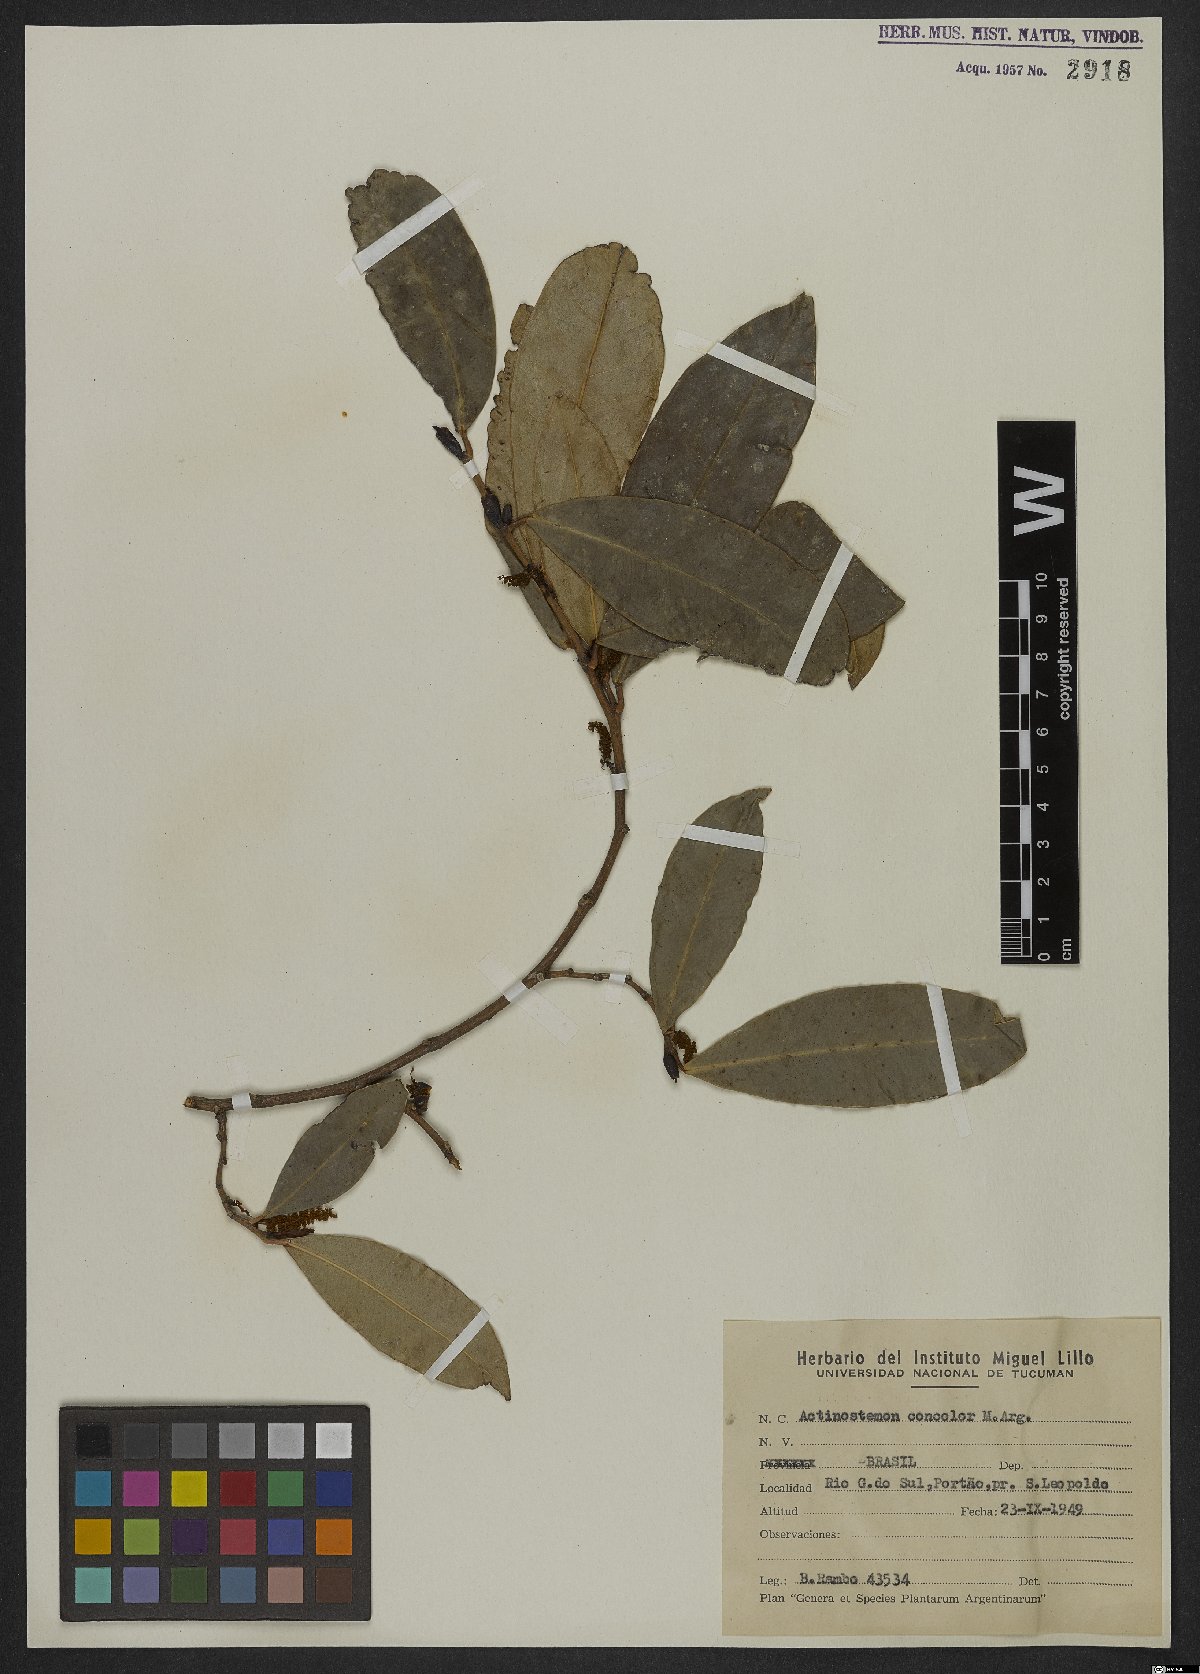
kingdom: Plantae
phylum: Tracheophyta
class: Magnoliopsida
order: Malpighiales
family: Euphorbiaceae
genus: Actinostemon
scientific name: Actinostemon concolor
